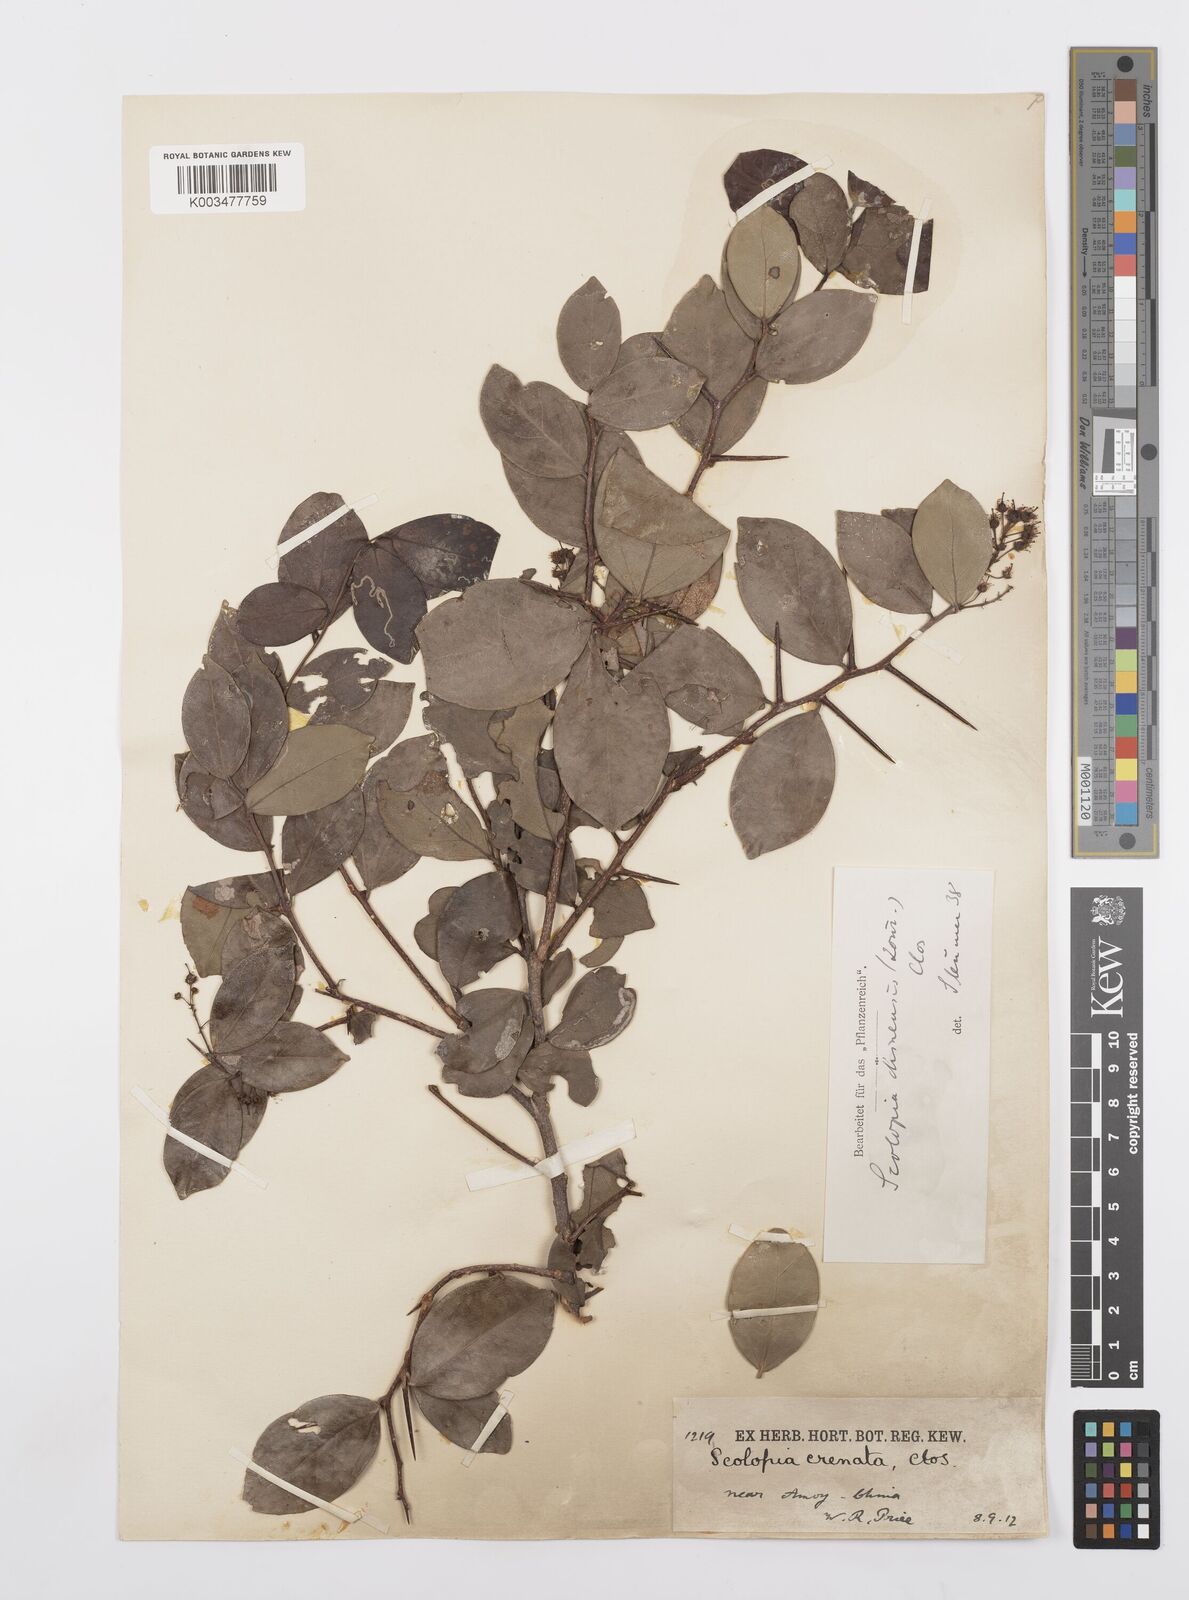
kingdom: Plantae
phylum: Tracheophyta
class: Magnoliopsida
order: Malpighiales
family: Salicaceae
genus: Scolopia
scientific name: Scolopia chinensis
